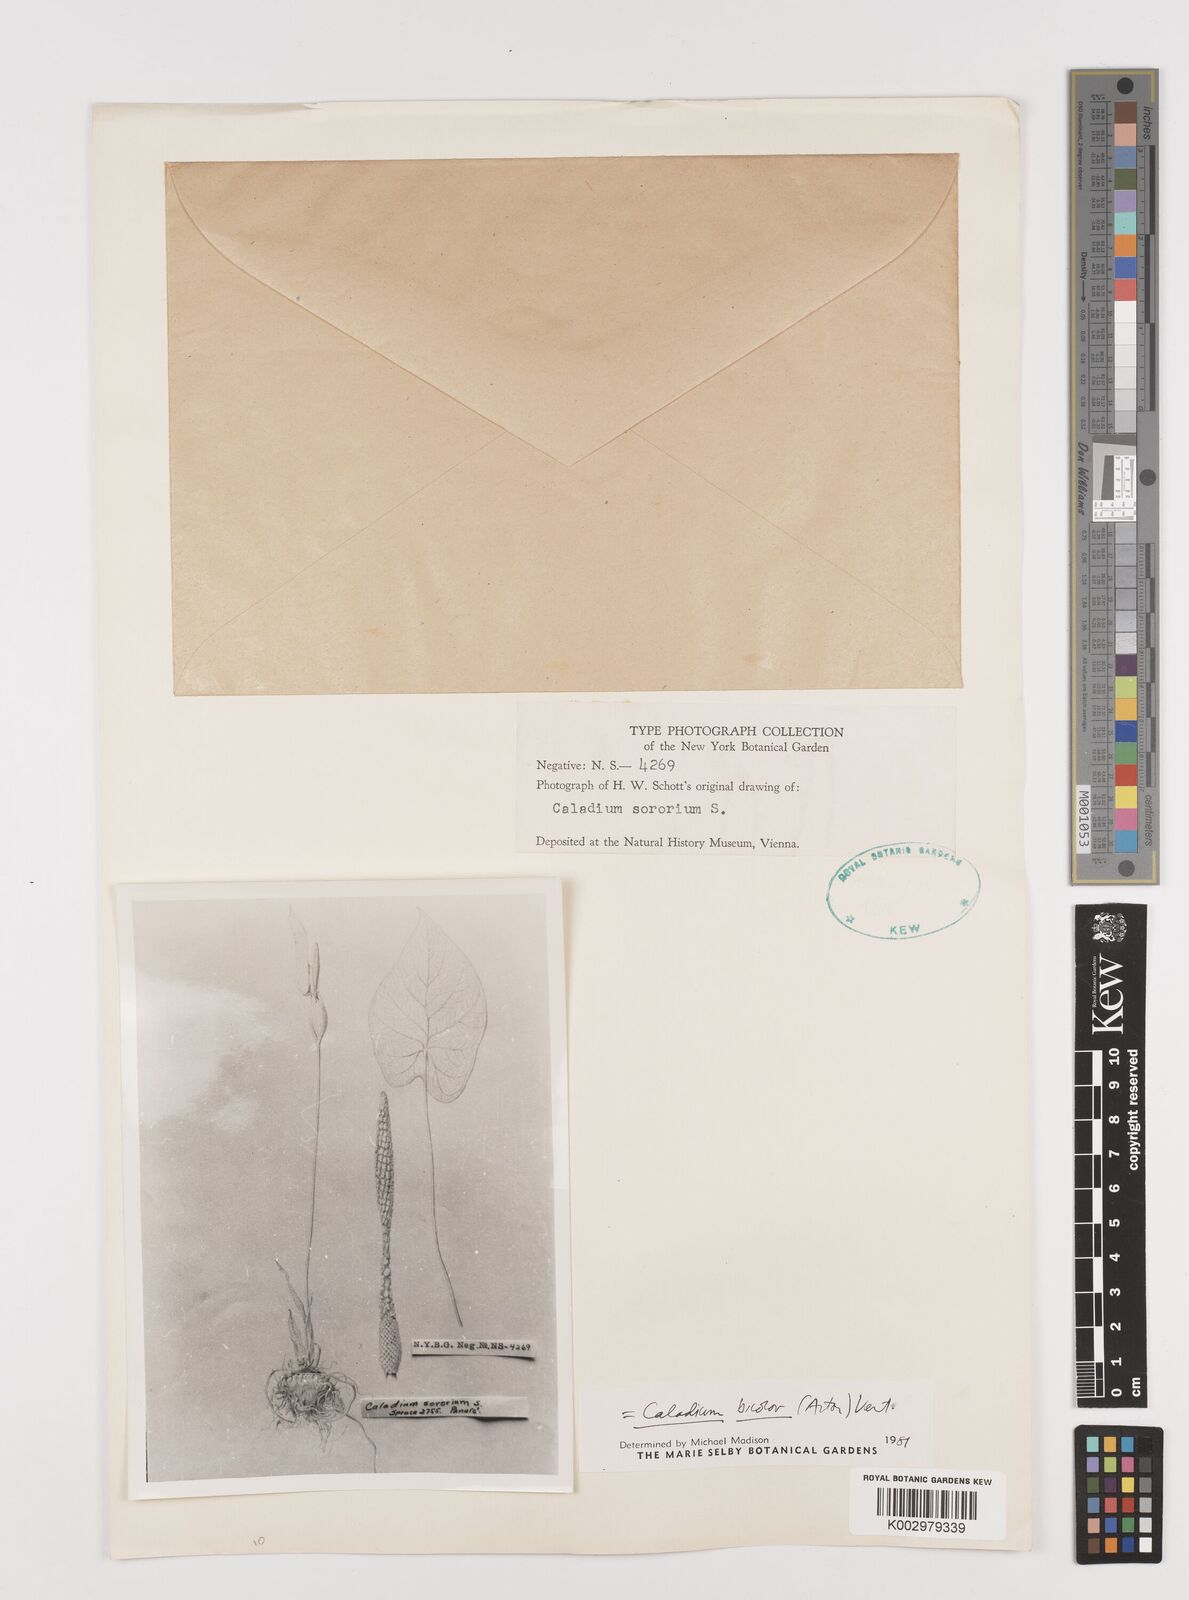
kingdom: Plantae
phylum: Tracheophyta
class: Liliopsida
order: Alismatales
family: Araceae
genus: Caladium
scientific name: Caladium bicolor
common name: Artist's pallet
